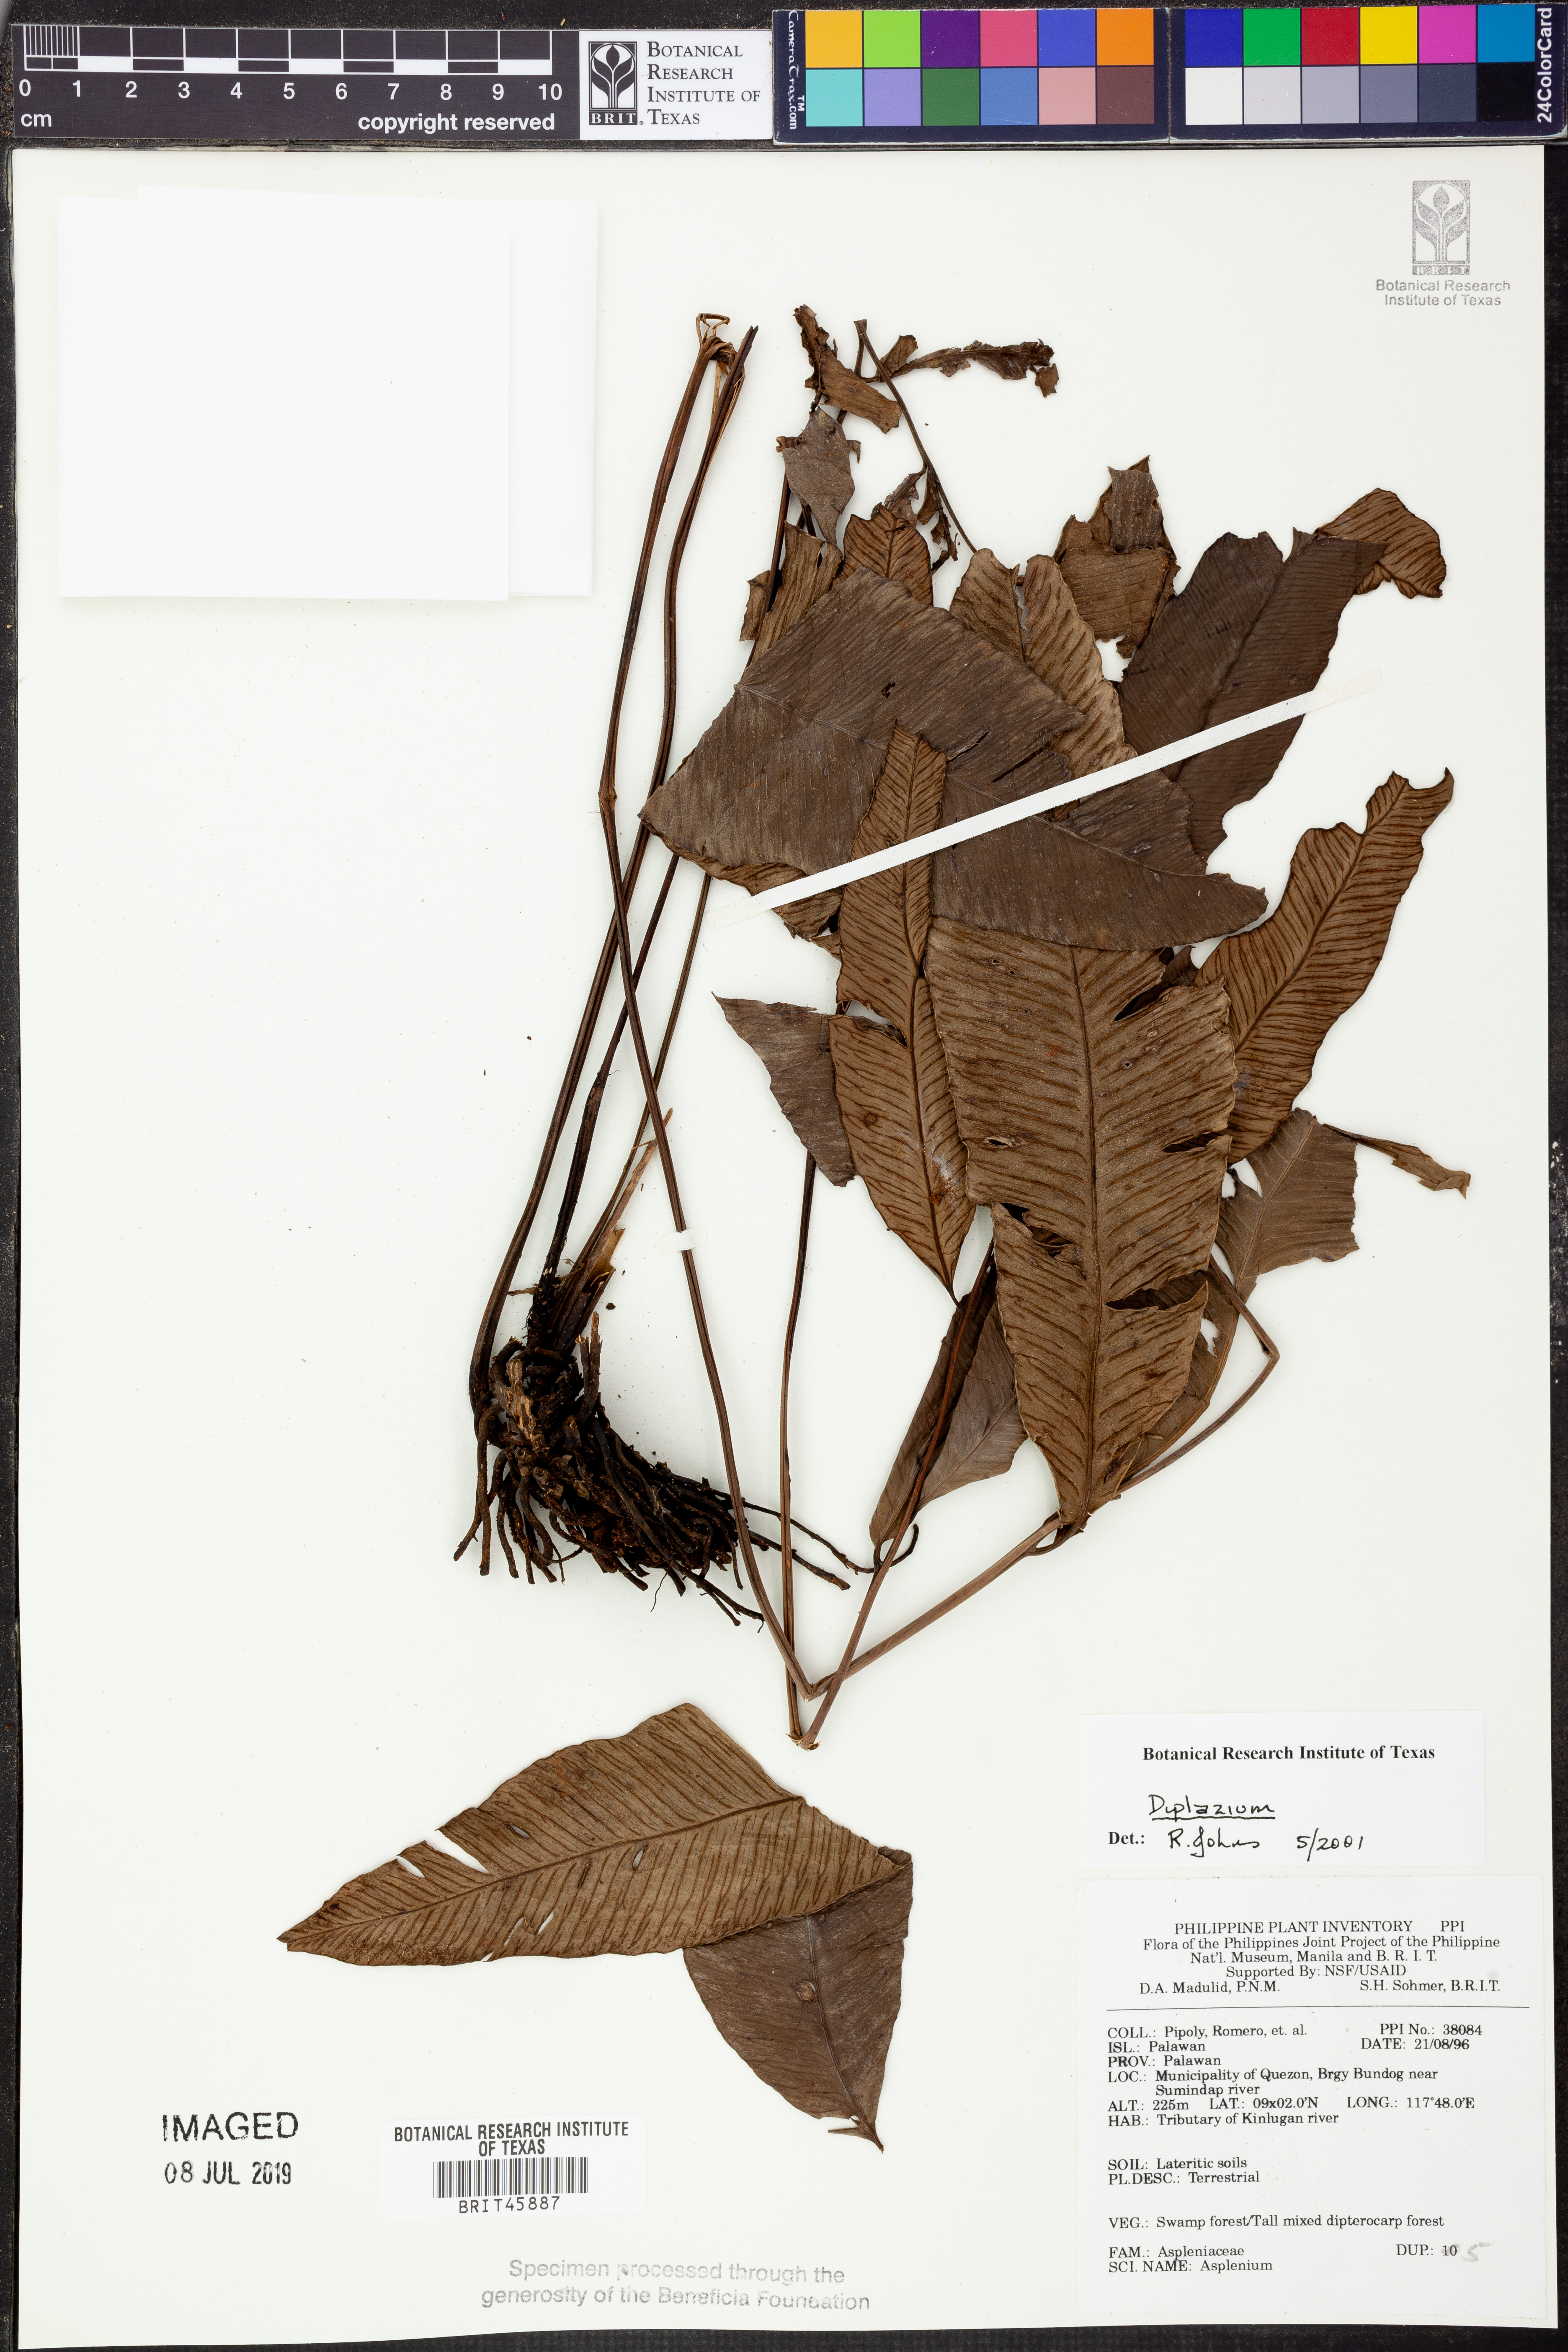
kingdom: Plantae
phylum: Tracheophyta
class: Polypodiopsida
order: Polypodiales
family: Athyriaceae
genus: Diplazium
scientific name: Diplazium
